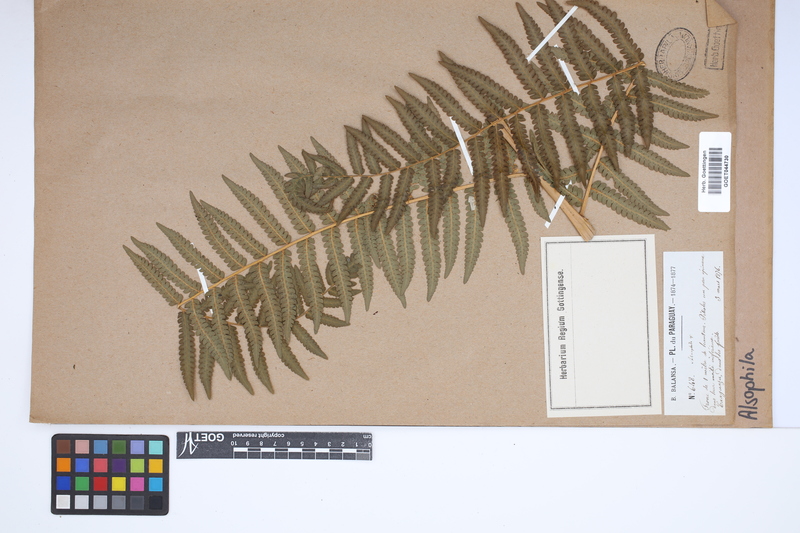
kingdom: Plantae
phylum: Tracheophyta
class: Polypodiopsida
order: Cyatheales
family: Cyatheaceae
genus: Alsophila
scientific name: Alsophila
